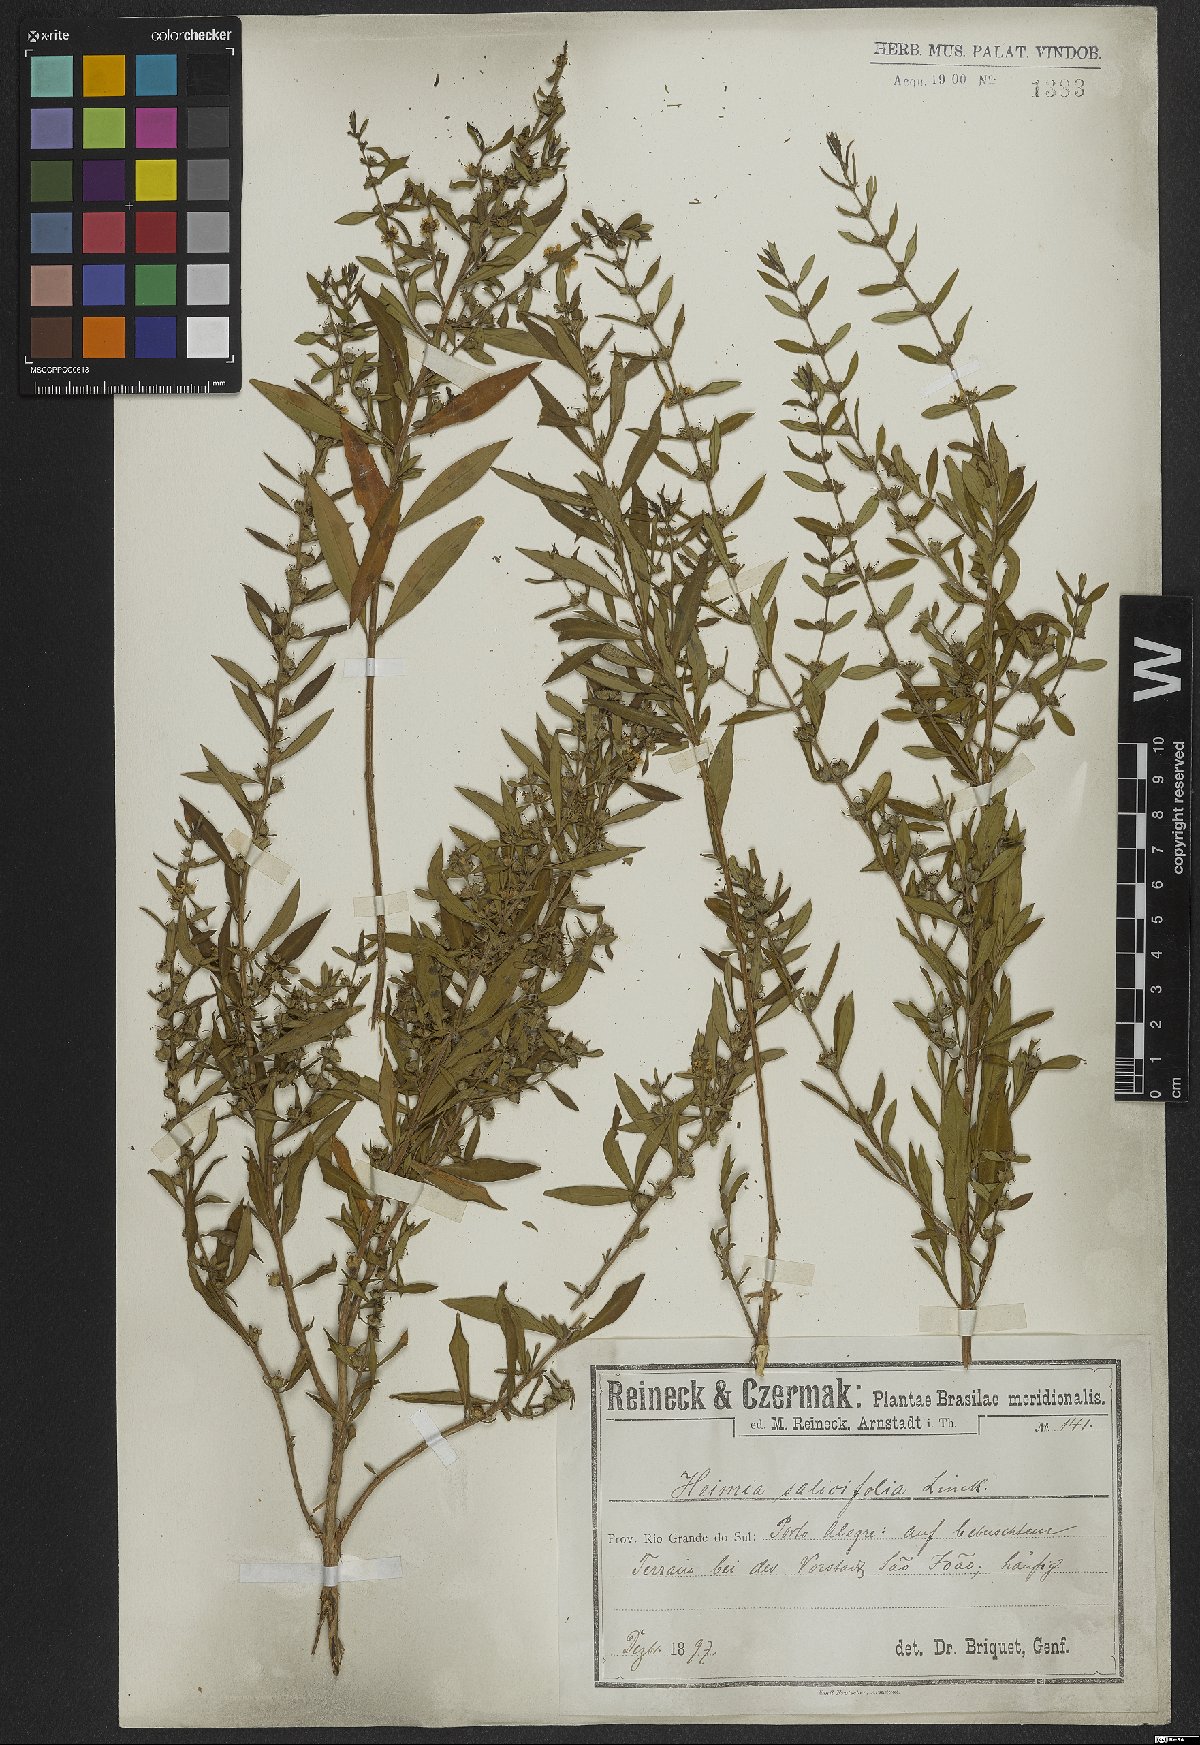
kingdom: Plantae
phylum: Tracheophyta
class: Magnoliopsida
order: Myrtales
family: Lythraceae
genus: Heimia
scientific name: Heimia salicifolia
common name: Willow-leaf heimia
